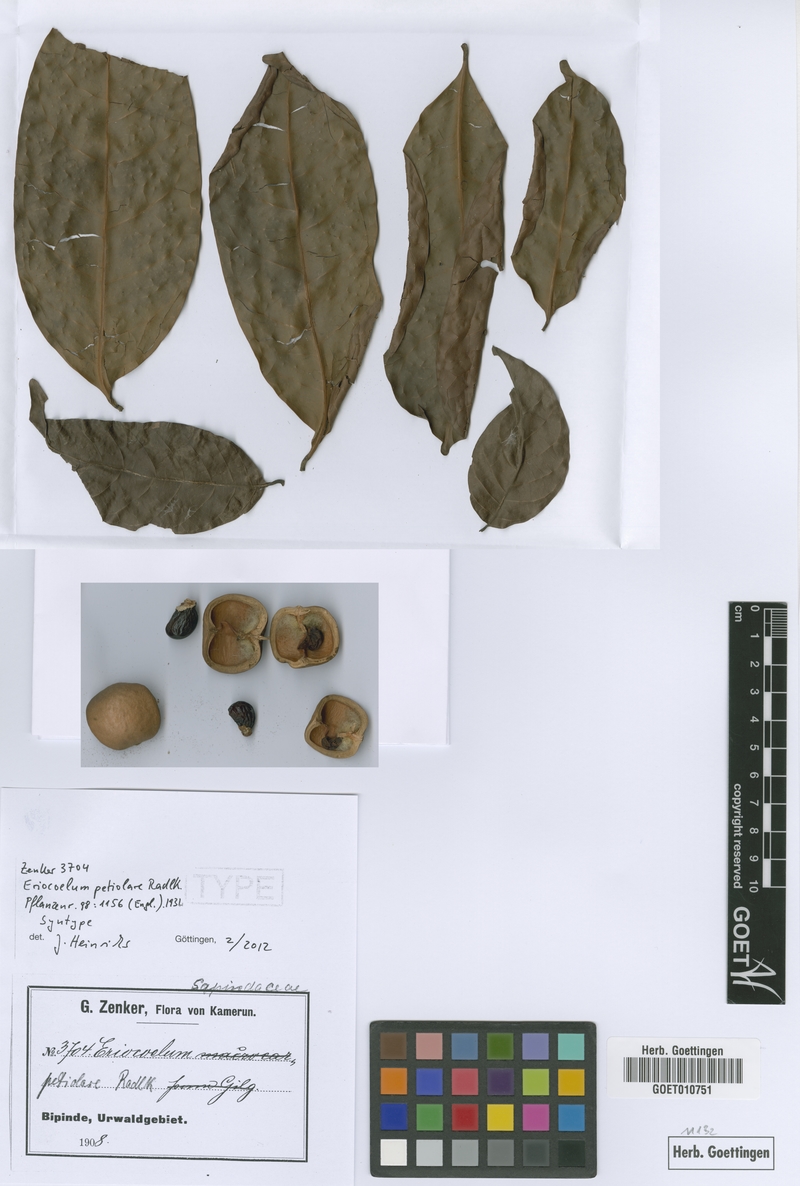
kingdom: Plantae
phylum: Tracheophyta
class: Magnoliopsida
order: Sapindales
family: Sapindaceae
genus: Eriocoelum
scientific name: Eriocoelum petiolare
